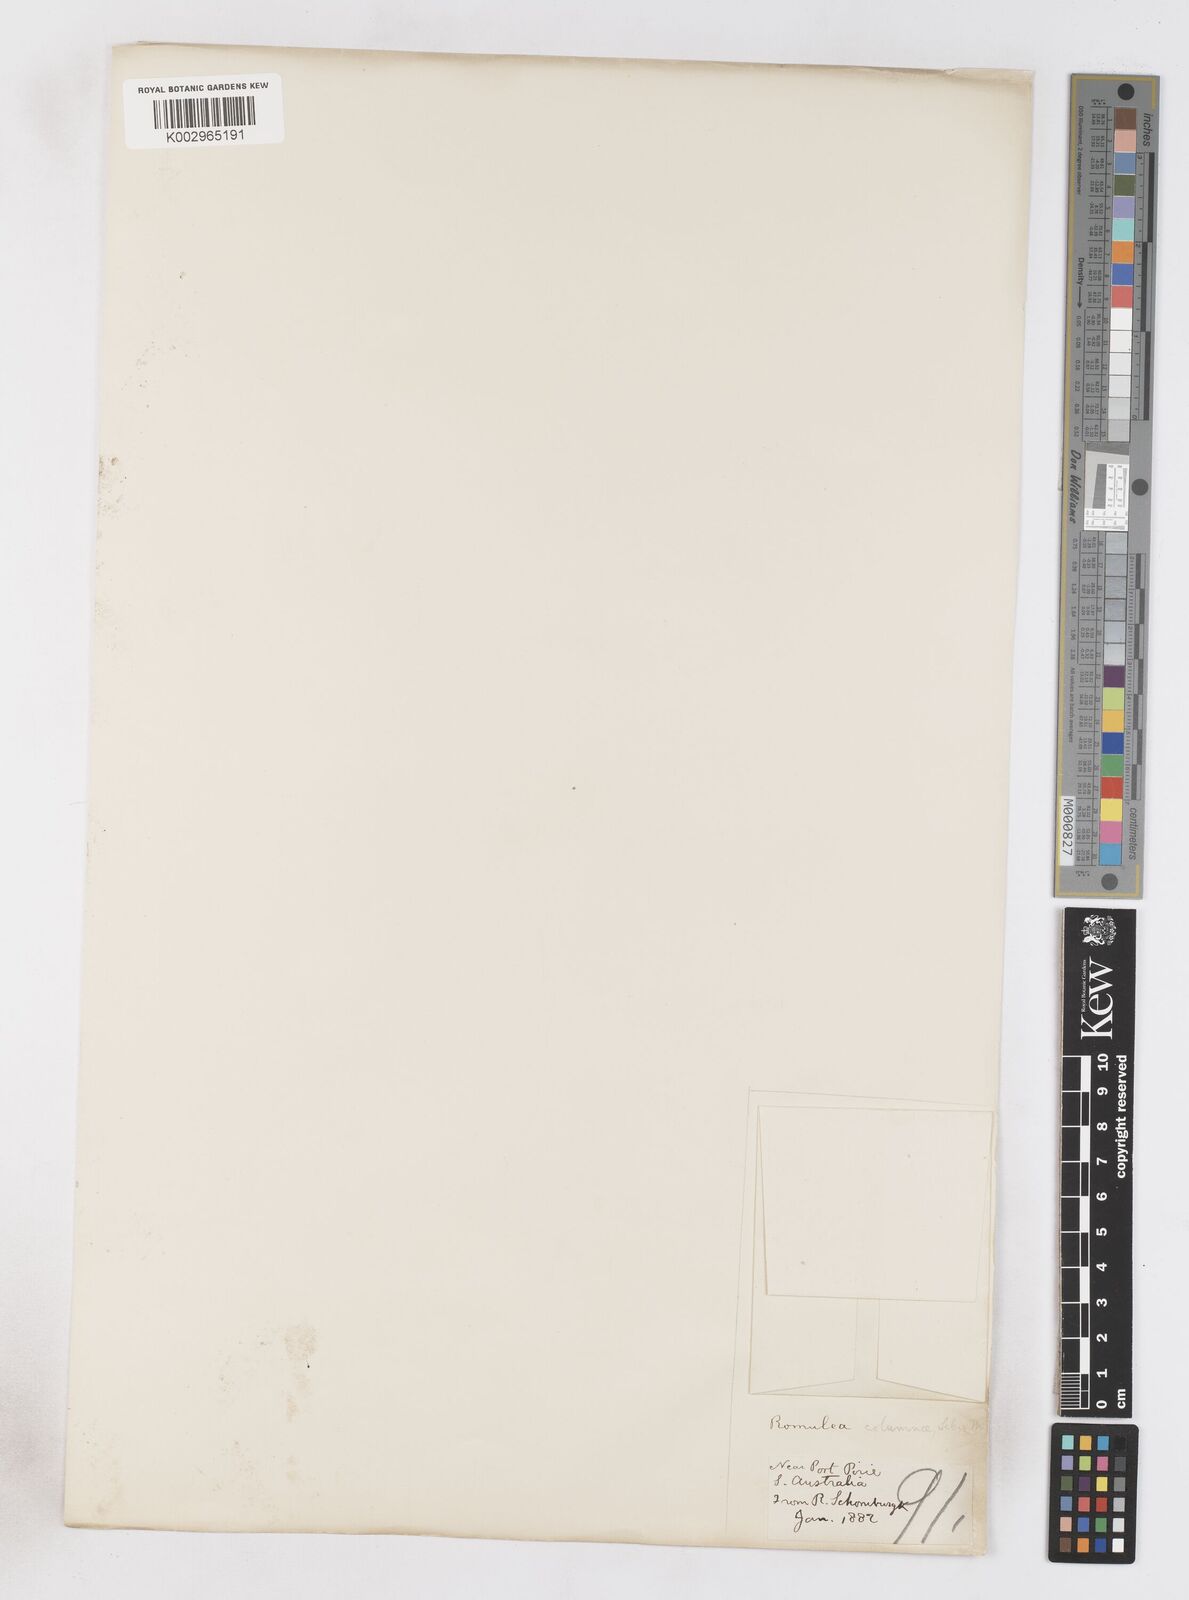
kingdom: Plantae
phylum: Tracheophyta
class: Liliopsida
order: Asparagales
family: Iridaceae
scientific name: Iridaceae
